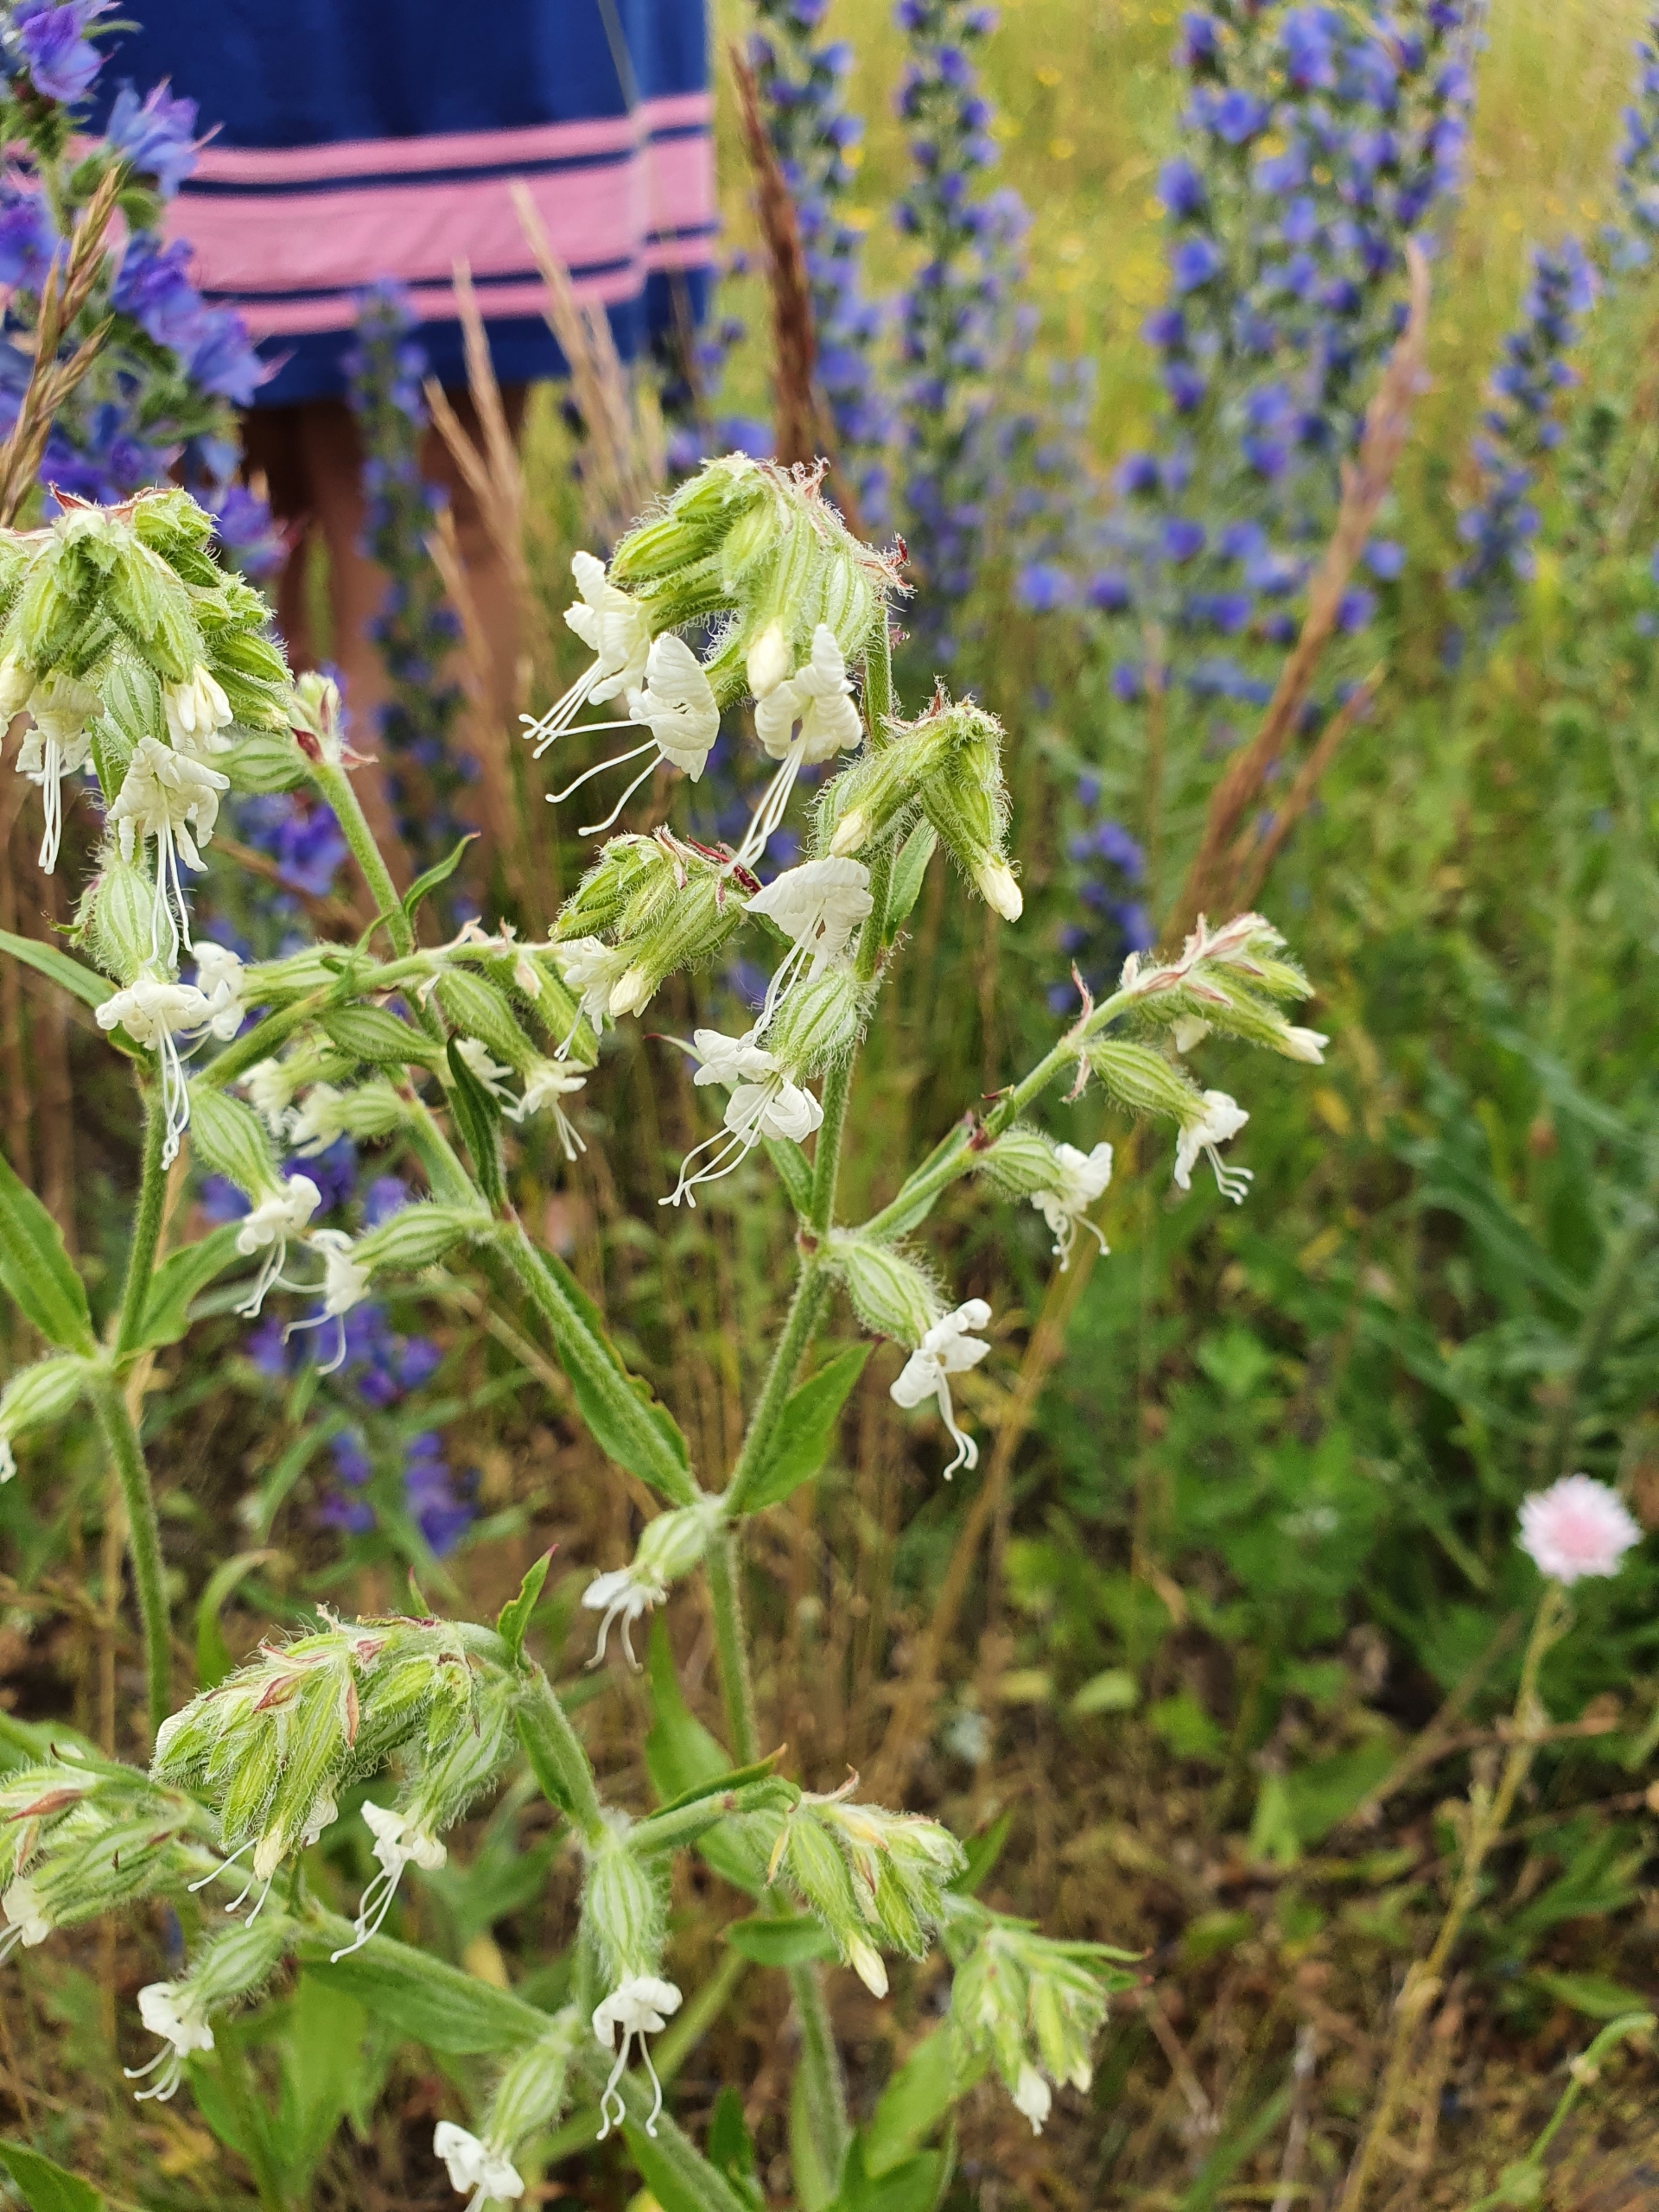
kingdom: Plantae
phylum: Tracheophyta
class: Magnoliopsida
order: Caryophyllales
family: Caryophyllaceae
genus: Silene
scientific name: Silene dichotoma
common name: Gaffel-limurt
